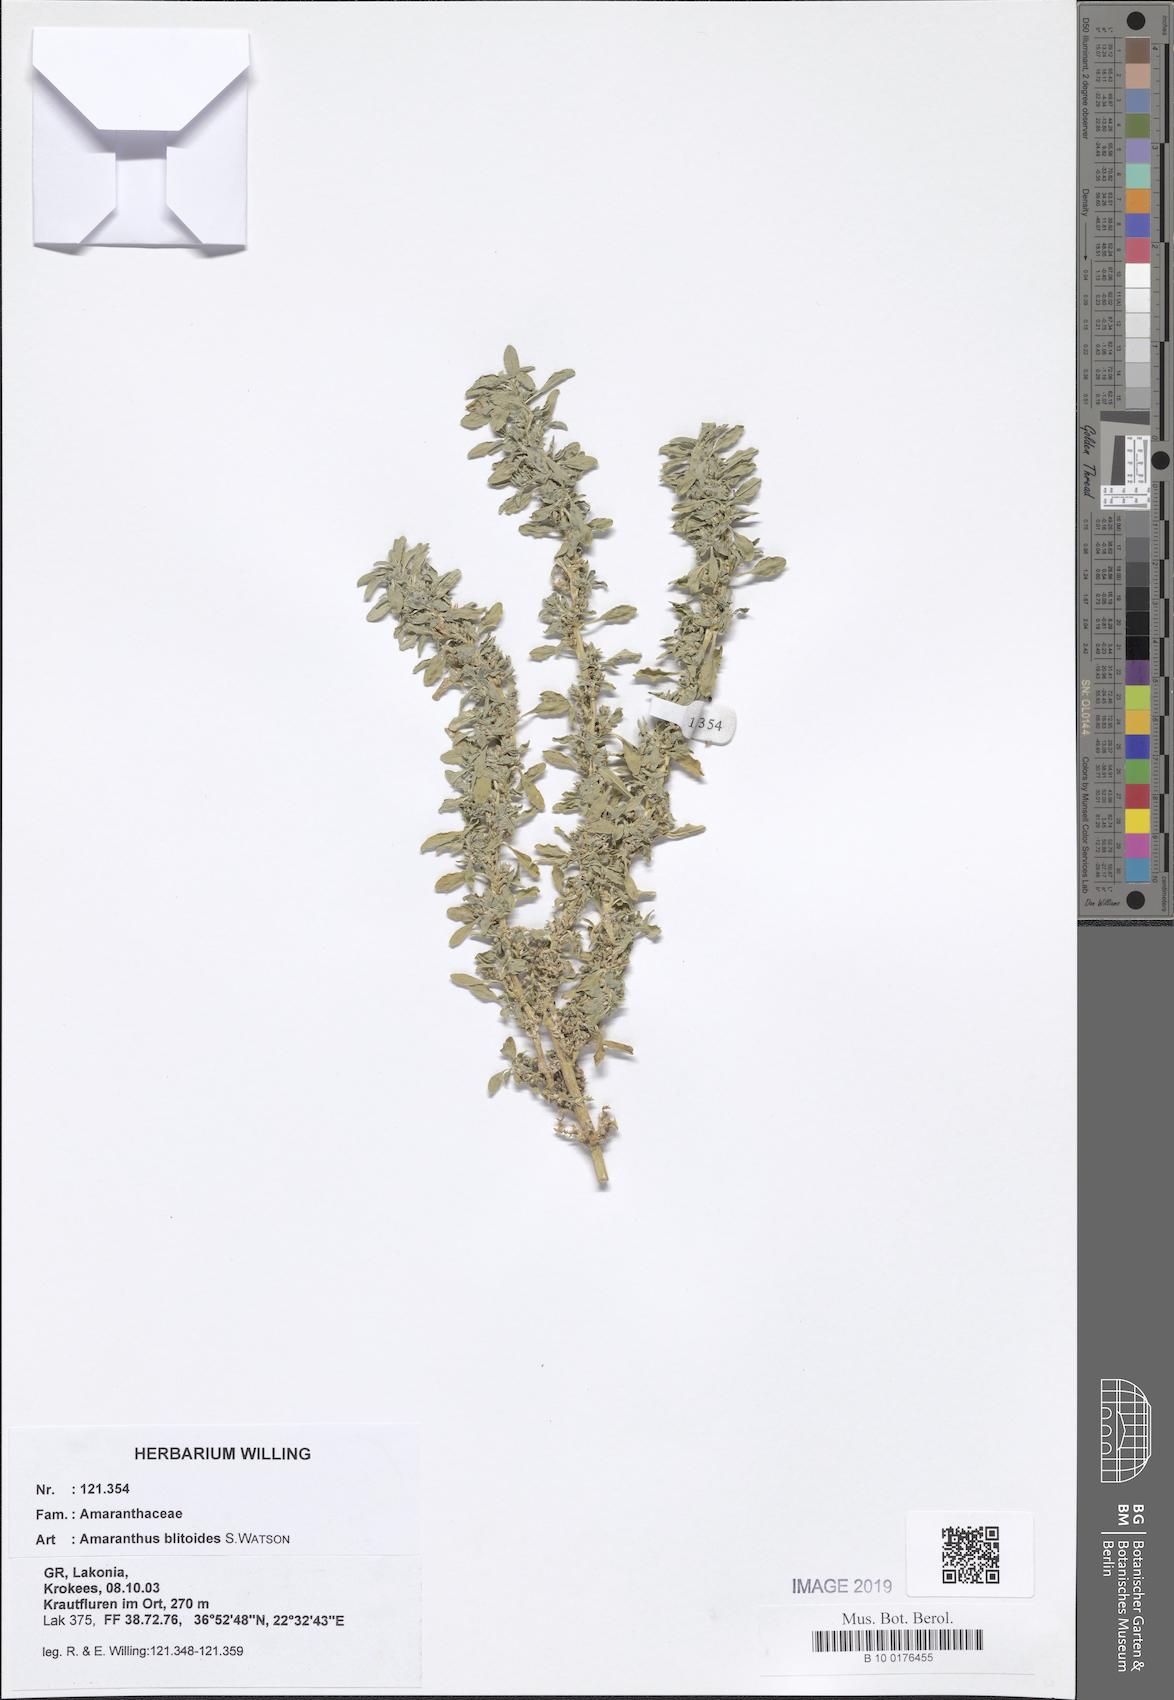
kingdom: Plantae
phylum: Tracheophyta
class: Magnoliopsida
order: Caryophyllales
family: Amaranthaceae
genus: Amaranthus
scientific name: Amaranthus blitoides
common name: Prostrate pigweed
